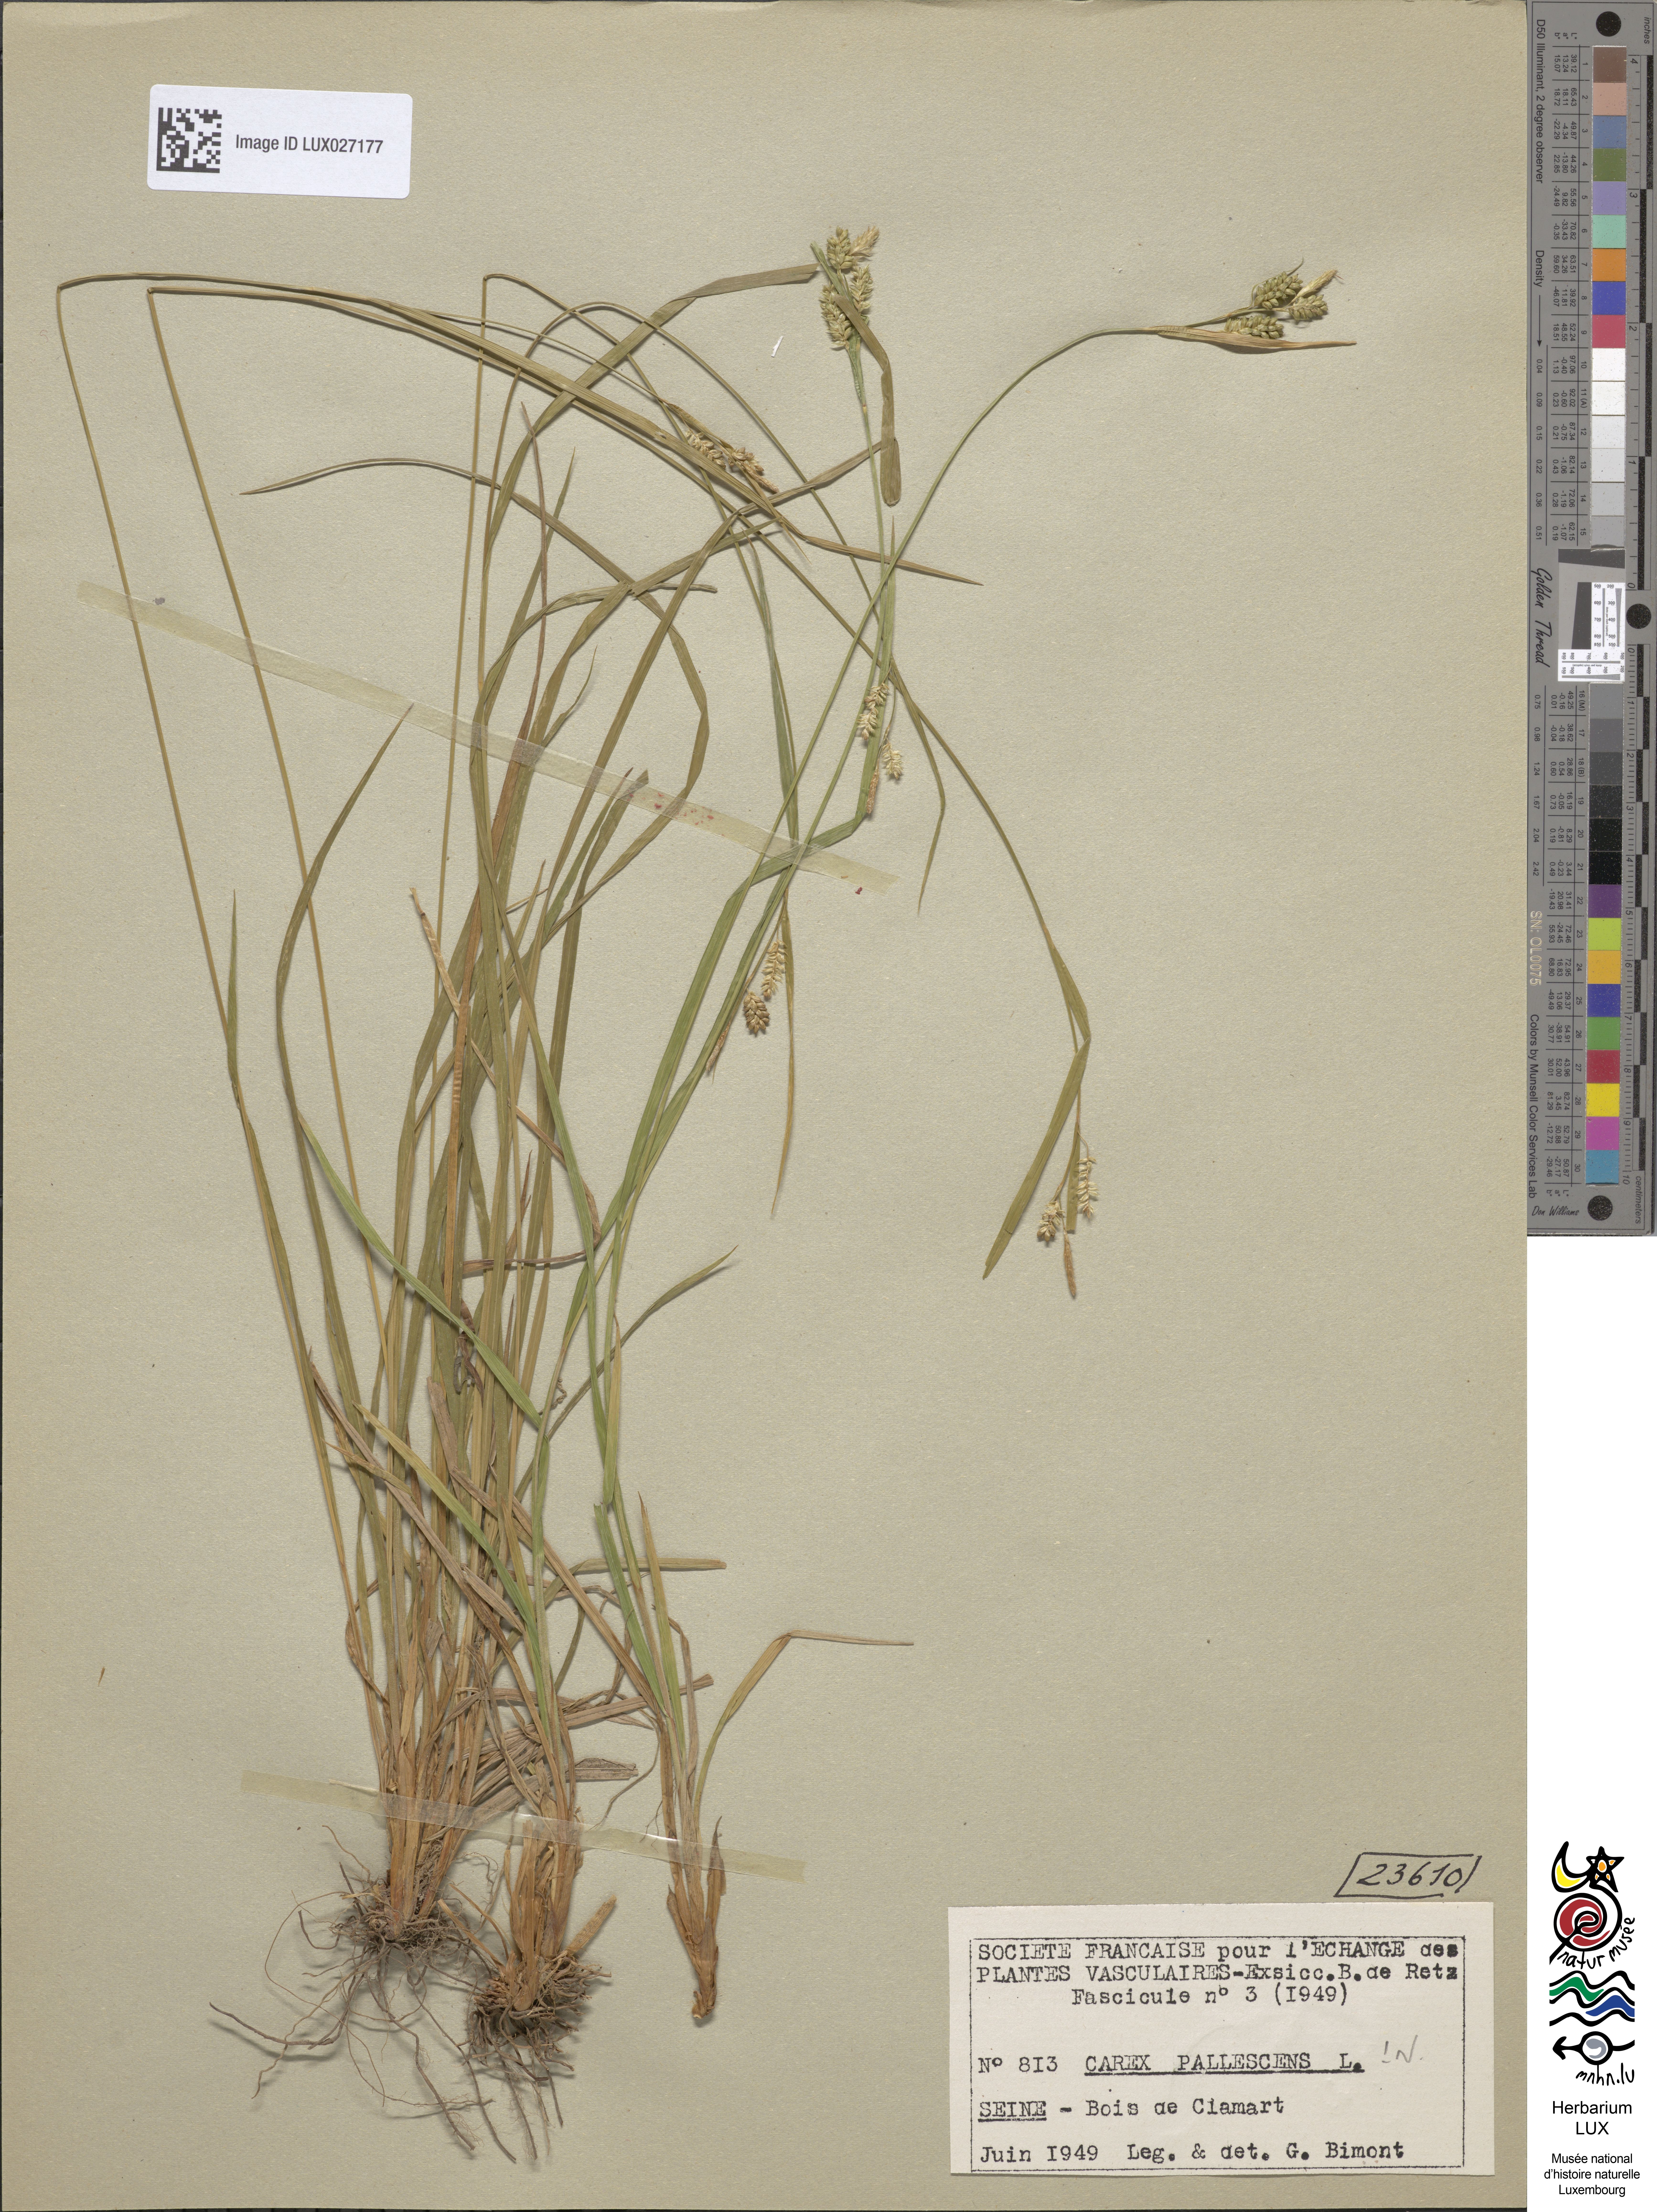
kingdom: Plantae
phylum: Tracheophyta
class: Liliopsida
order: Poales
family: Cyperaceae
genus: Carex
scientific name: Carex pallescens
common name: Pale sedge
